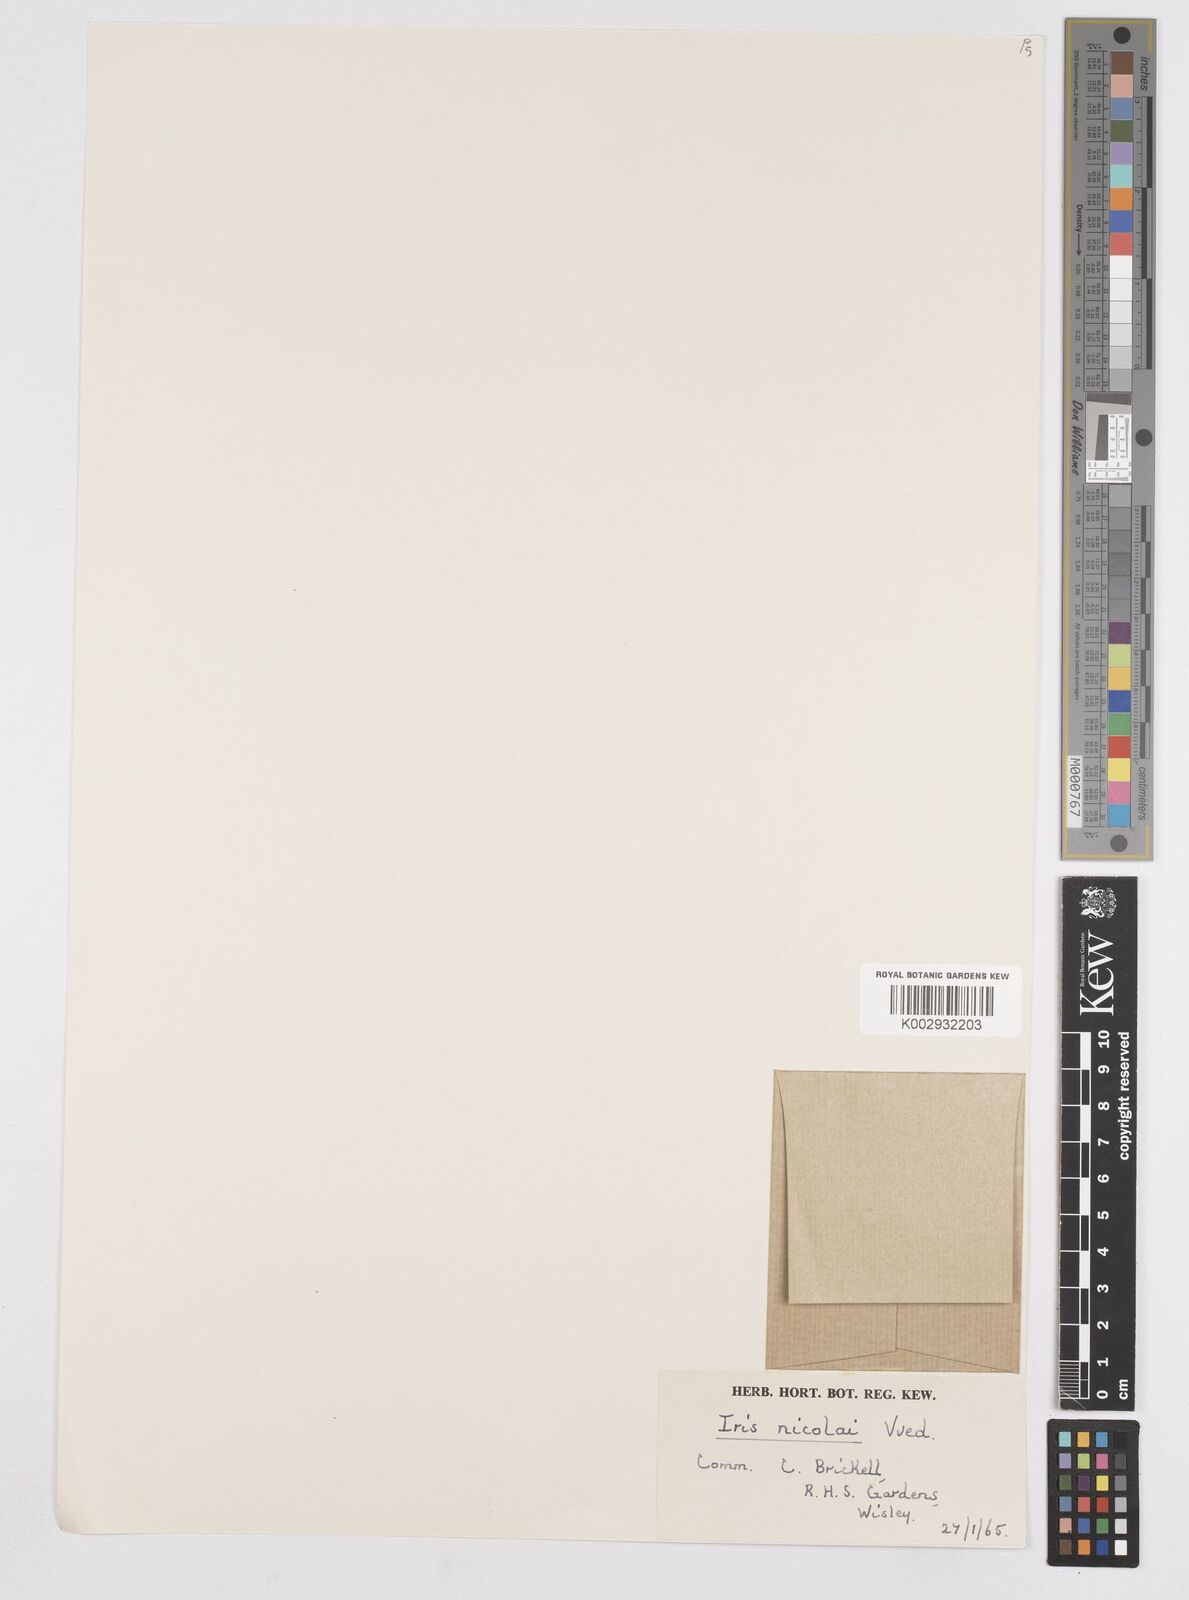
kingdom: Plantae
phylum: Tracheophyta
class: Liliopsida
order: Asparagales
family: Iridaceae
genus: Iris
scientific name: Iris nicolai
